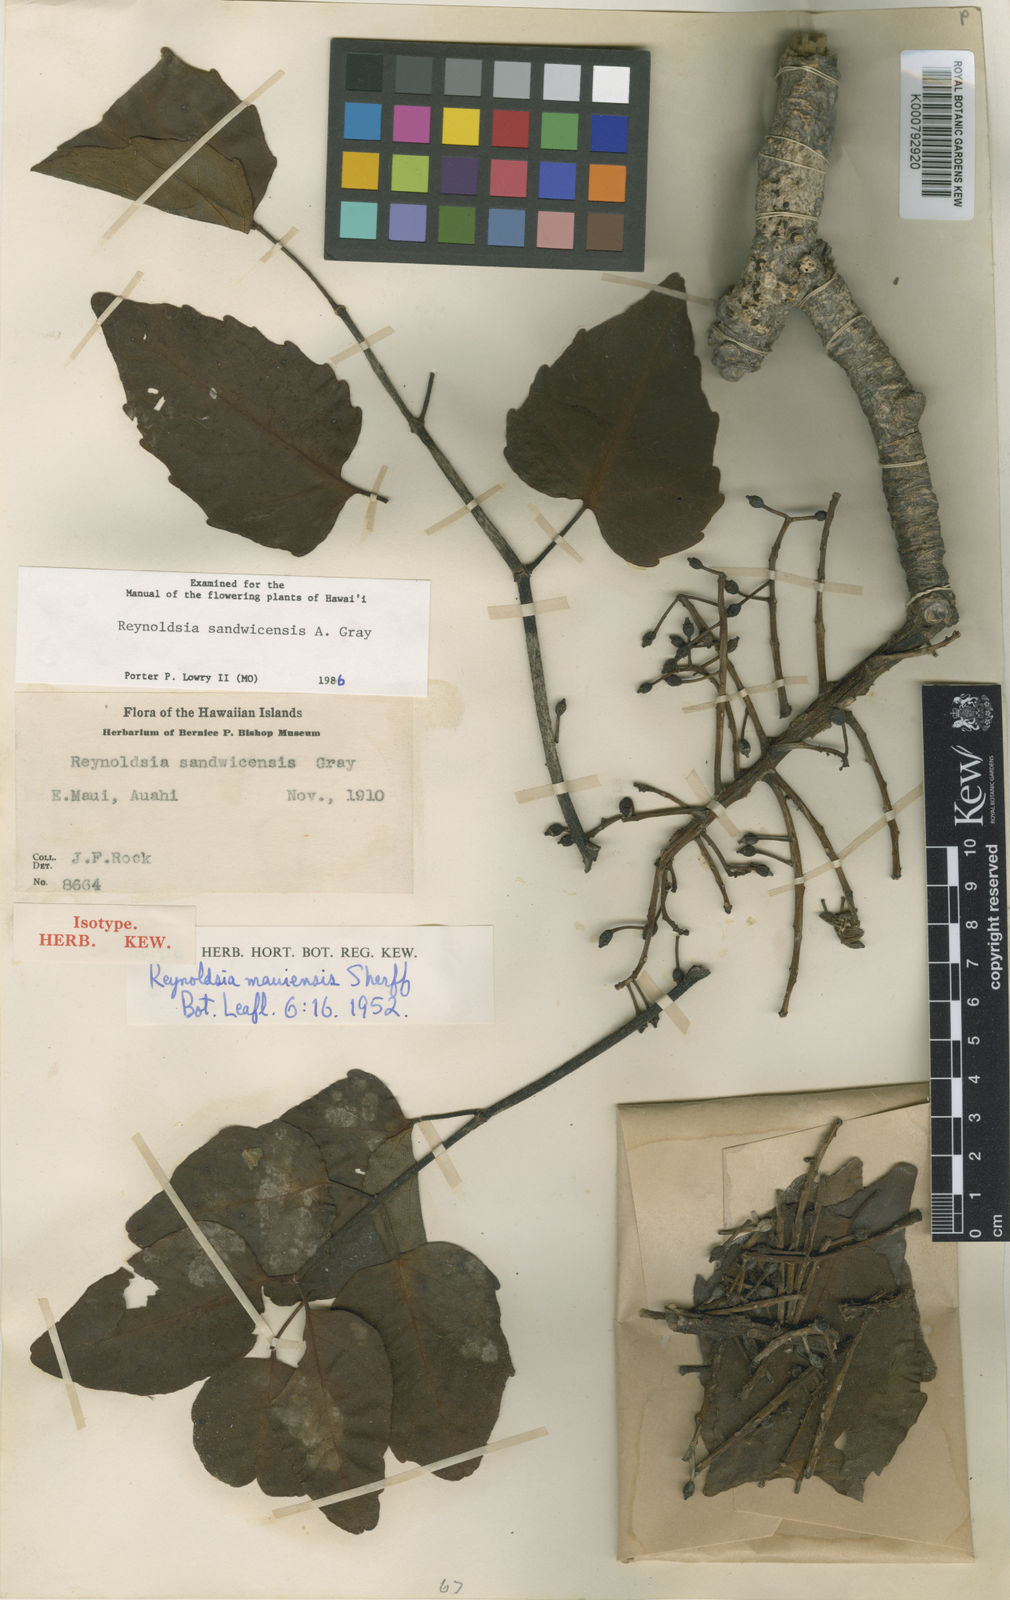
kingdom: Plantae
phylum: Tracheophyta
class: Magnoliopsida
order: Apiales
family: Araliaceae
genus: Polyscias
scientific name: Polyscias sandwicensis
